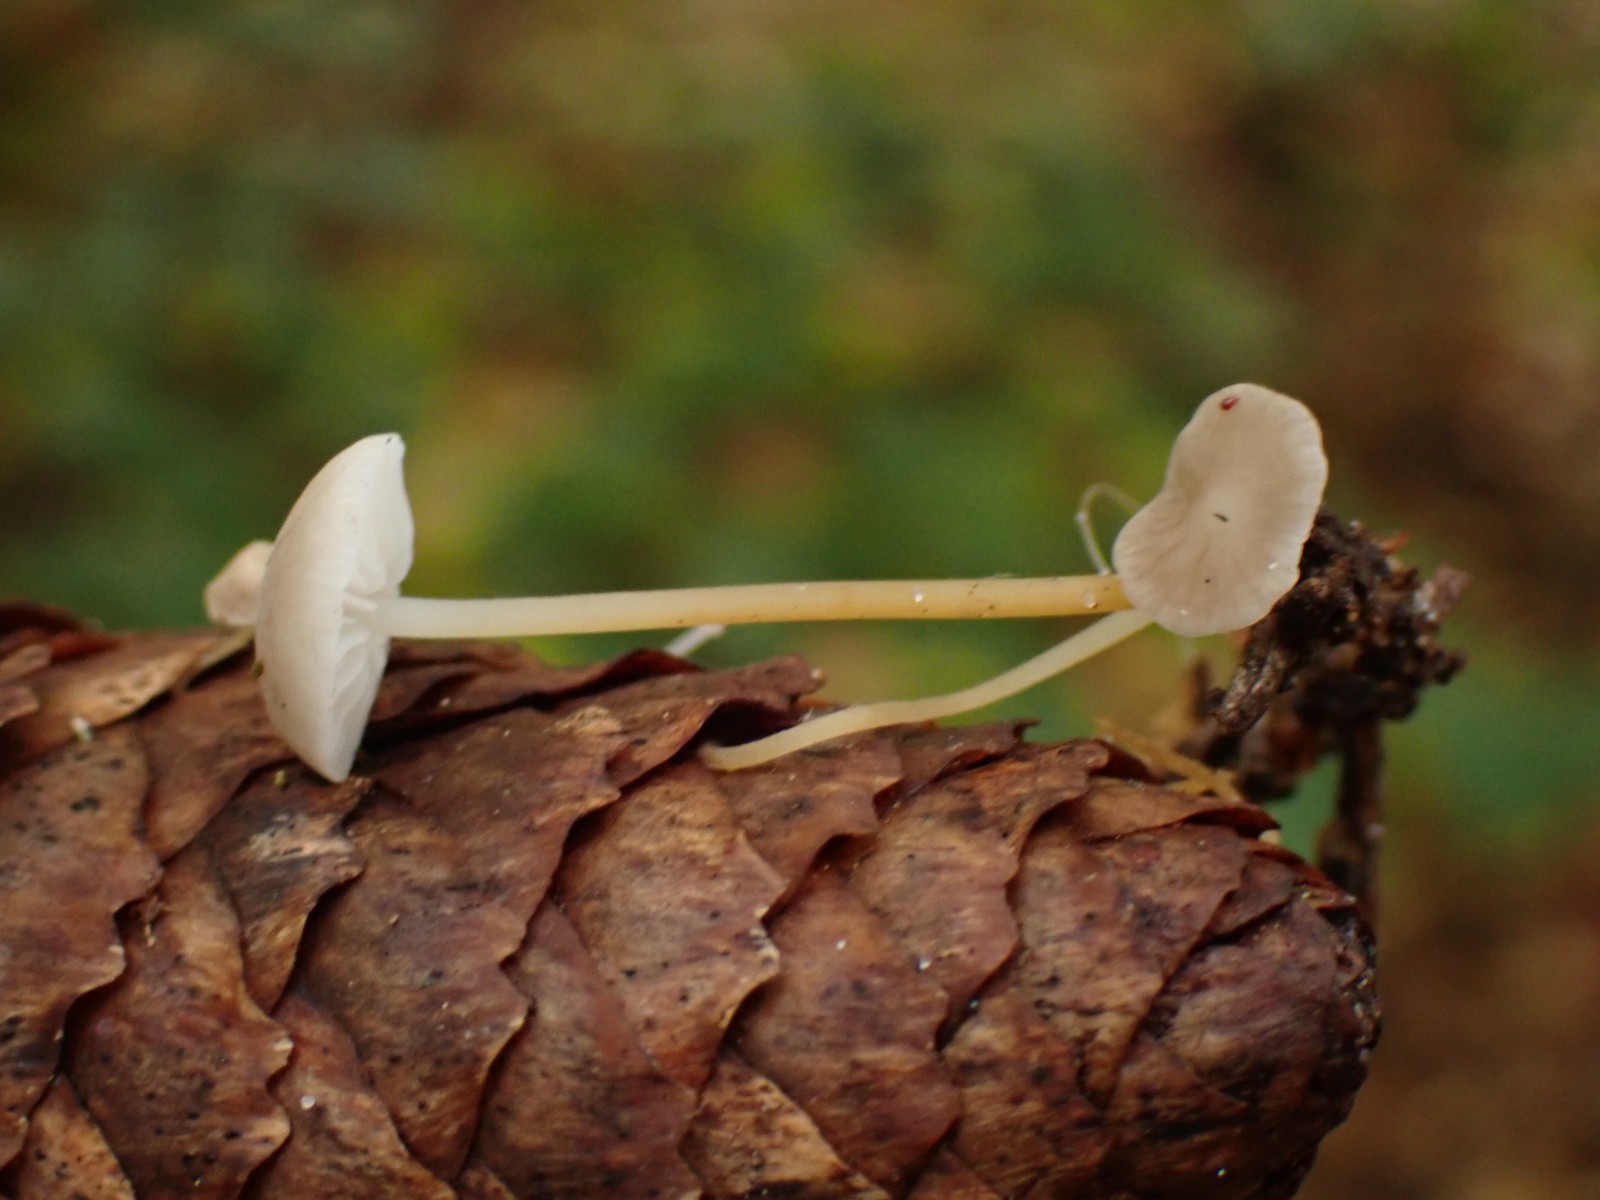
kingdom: Fungi
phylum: Basidiomycota
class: Agaricomycetes
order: Agaricales
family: Physalacriaceae
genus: Strobilurus
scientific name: Strobilurus esculentus
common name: gran-koglehat
